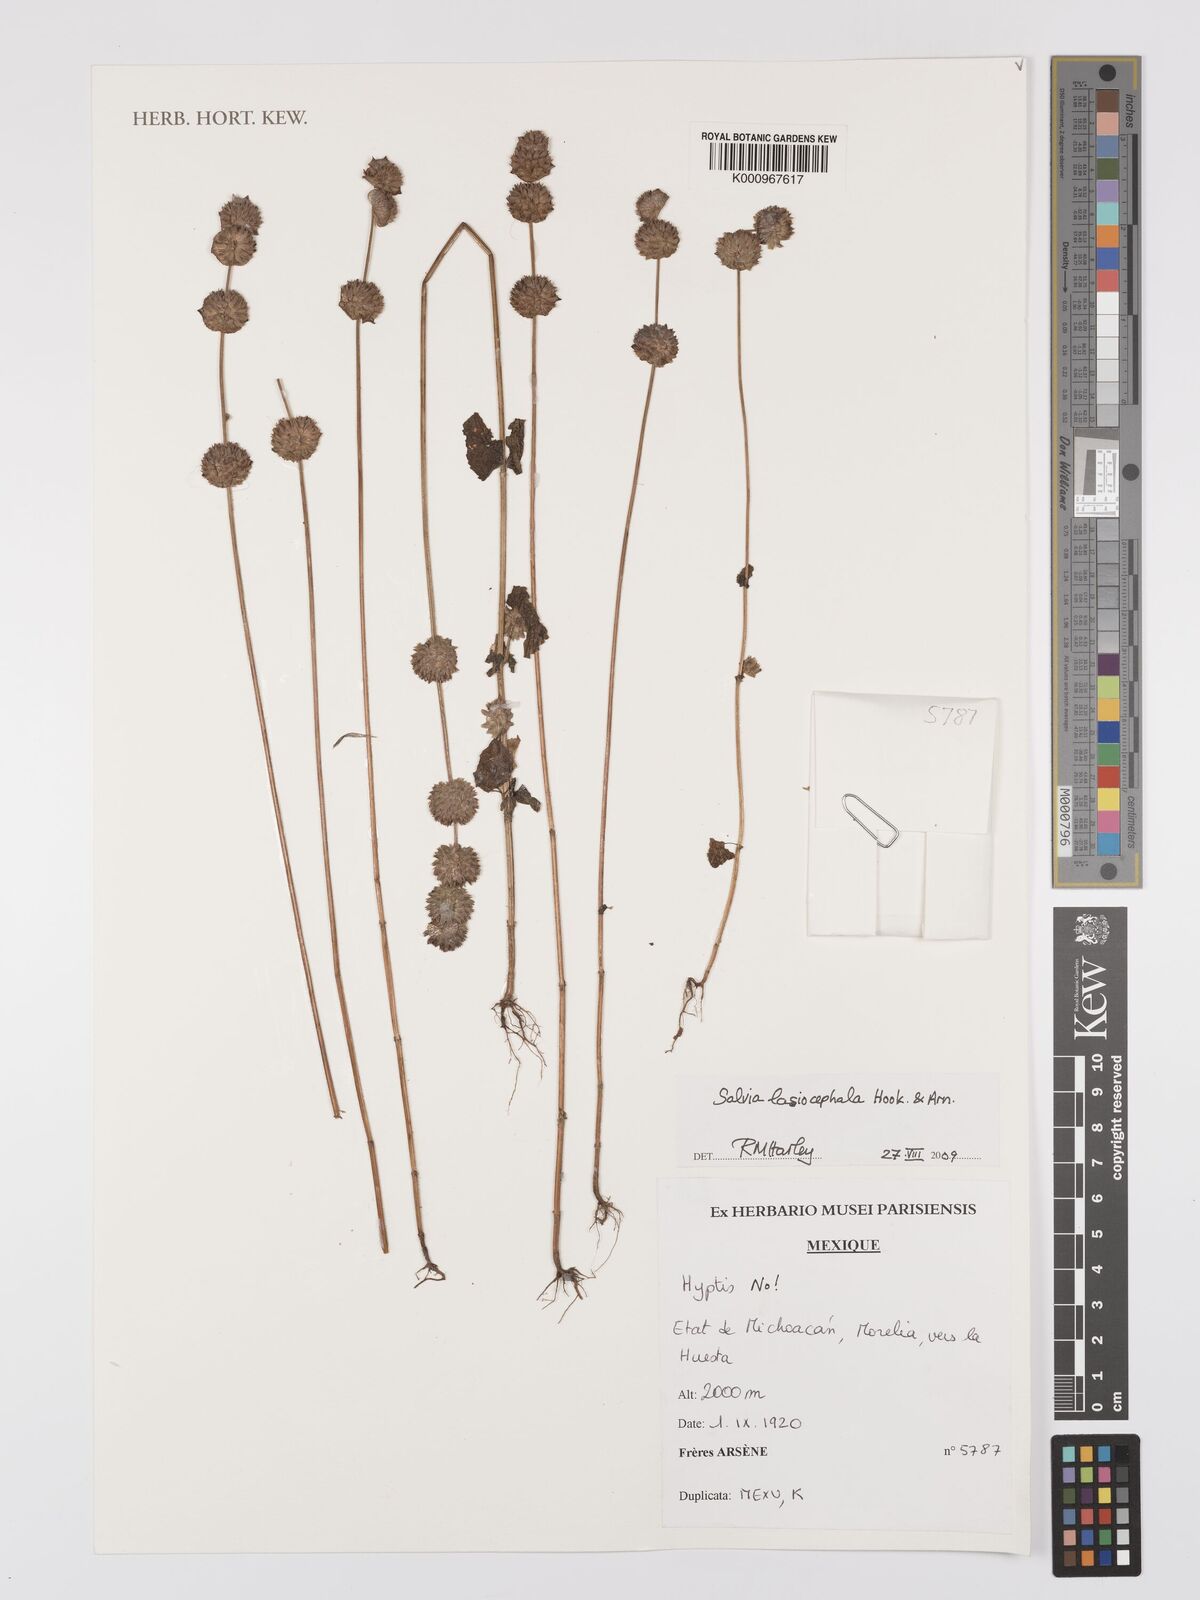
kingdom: Plantae
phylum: Tracheophyta
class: Magnoliopsida
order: Lamiales
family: Lamiaceae
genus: Salvia
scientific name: Salvia lasiocephala
